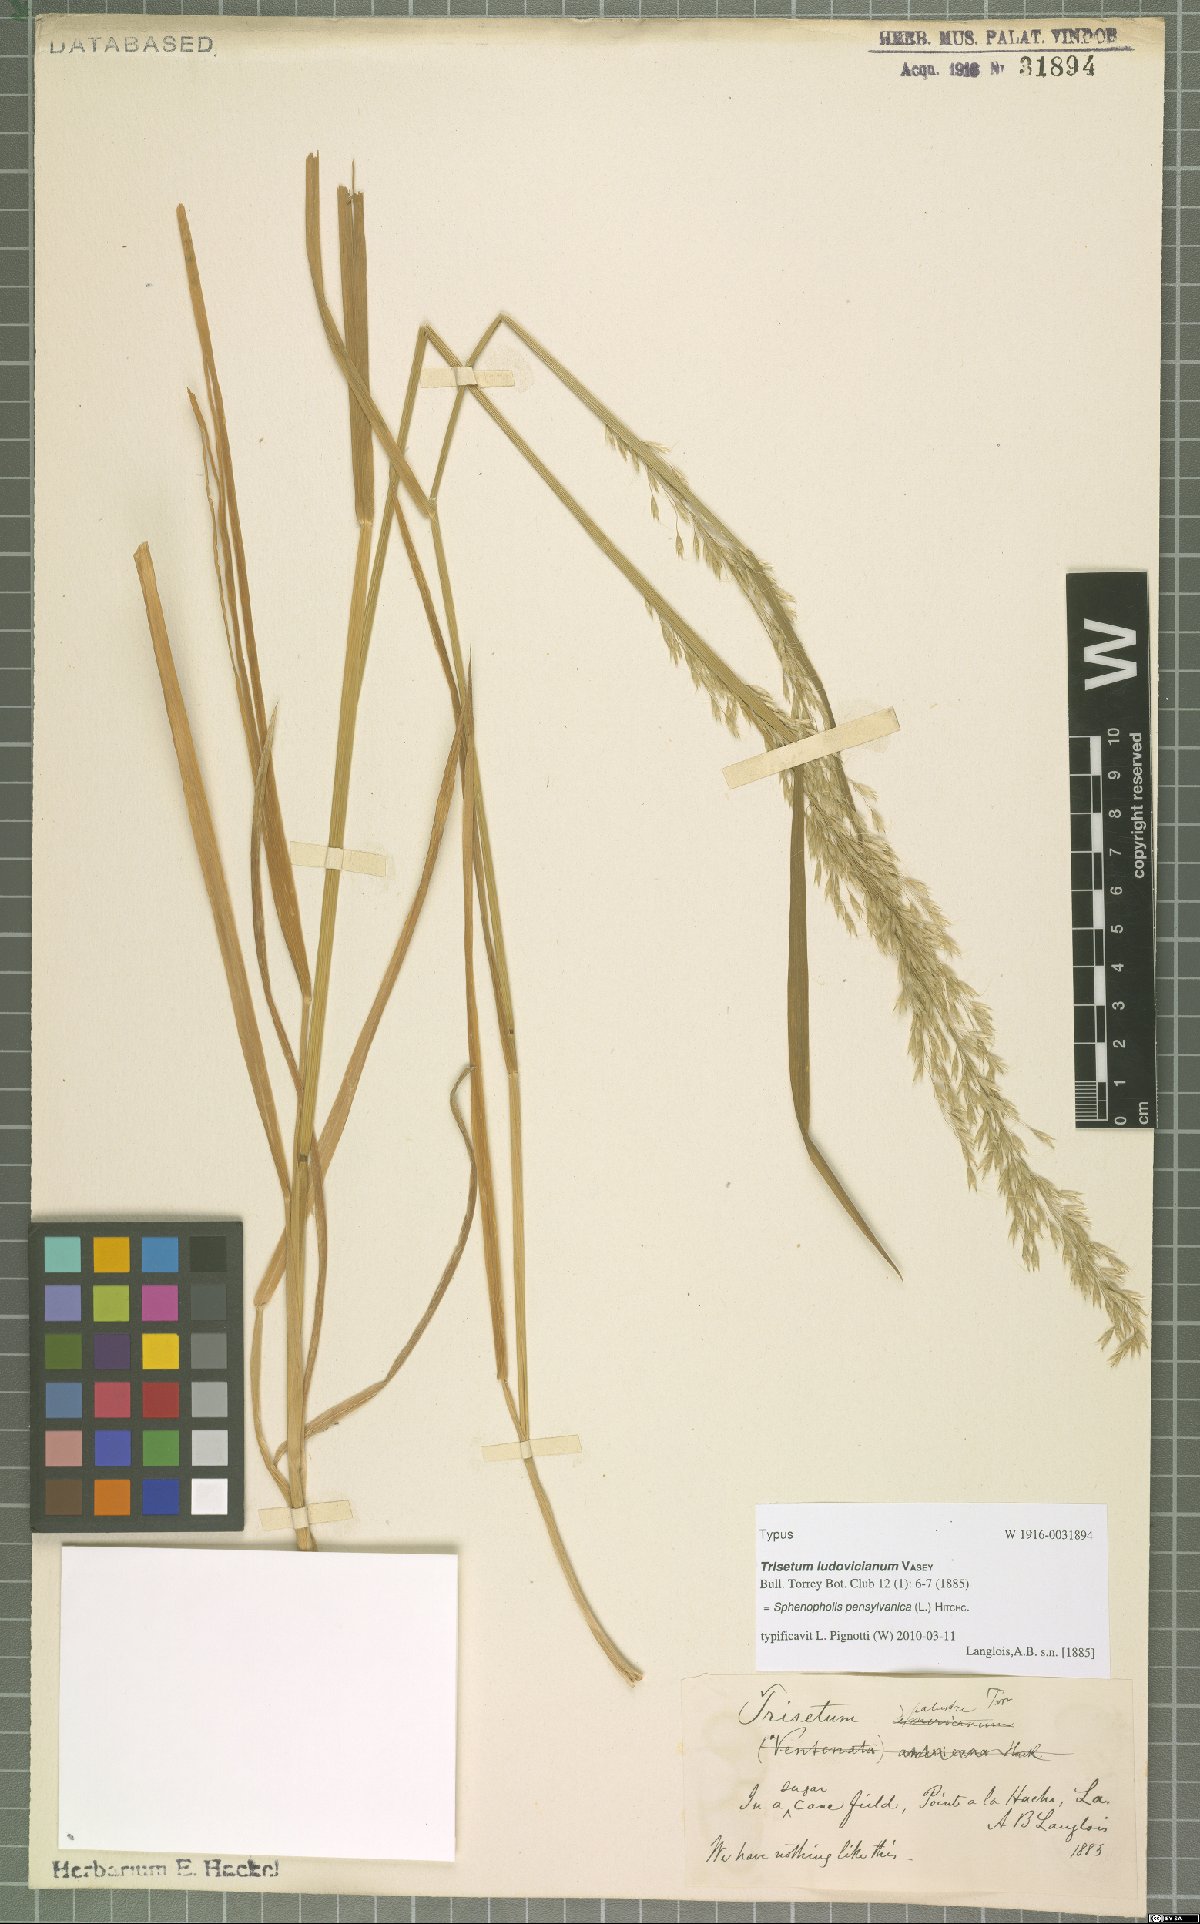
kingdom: Plantae
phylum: Tracheophyta
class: Liliopsida
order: Poales
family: Poaceae
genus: Sphenopholis
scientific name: Sphenopholis pensylvanica
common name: Swamp oats
